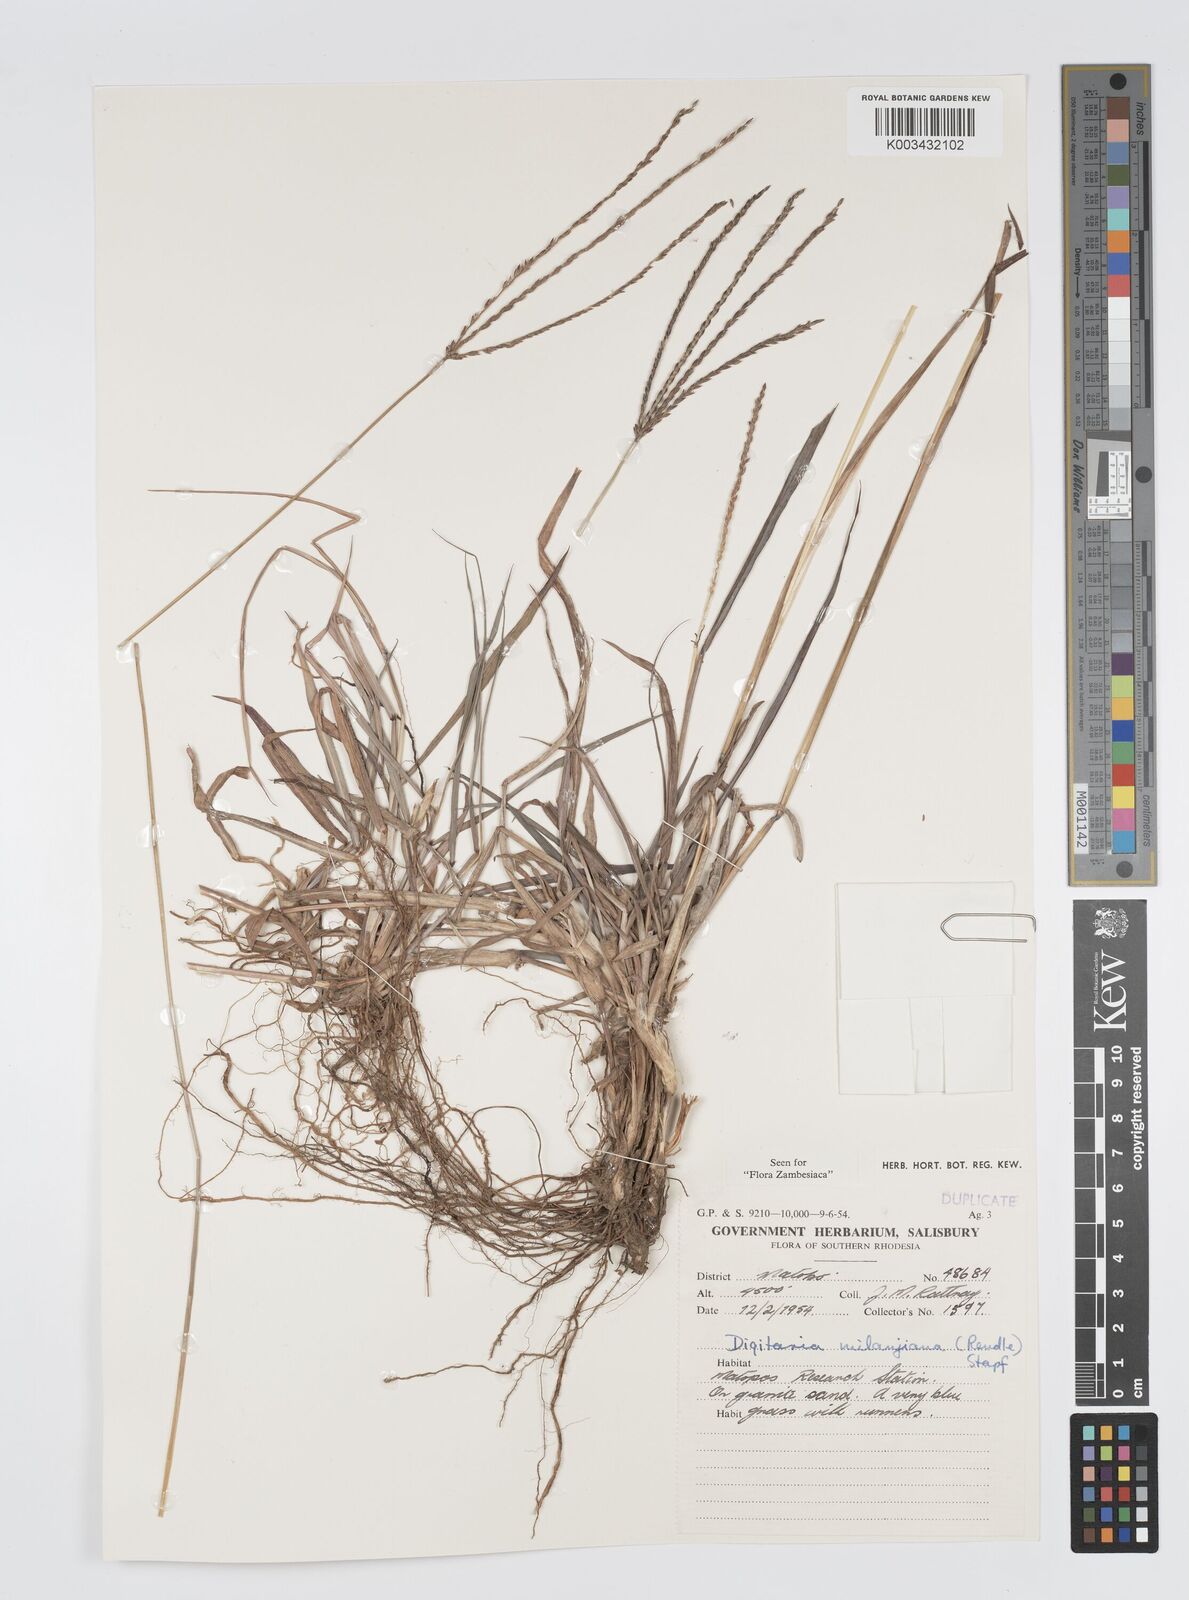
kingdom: Plantae
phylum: Tracheophyta
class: Liliopsida
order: Poales
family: Poaceae
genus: Digitaria
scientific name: Digitaria milanjiana
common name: Madagascar crabgrass
